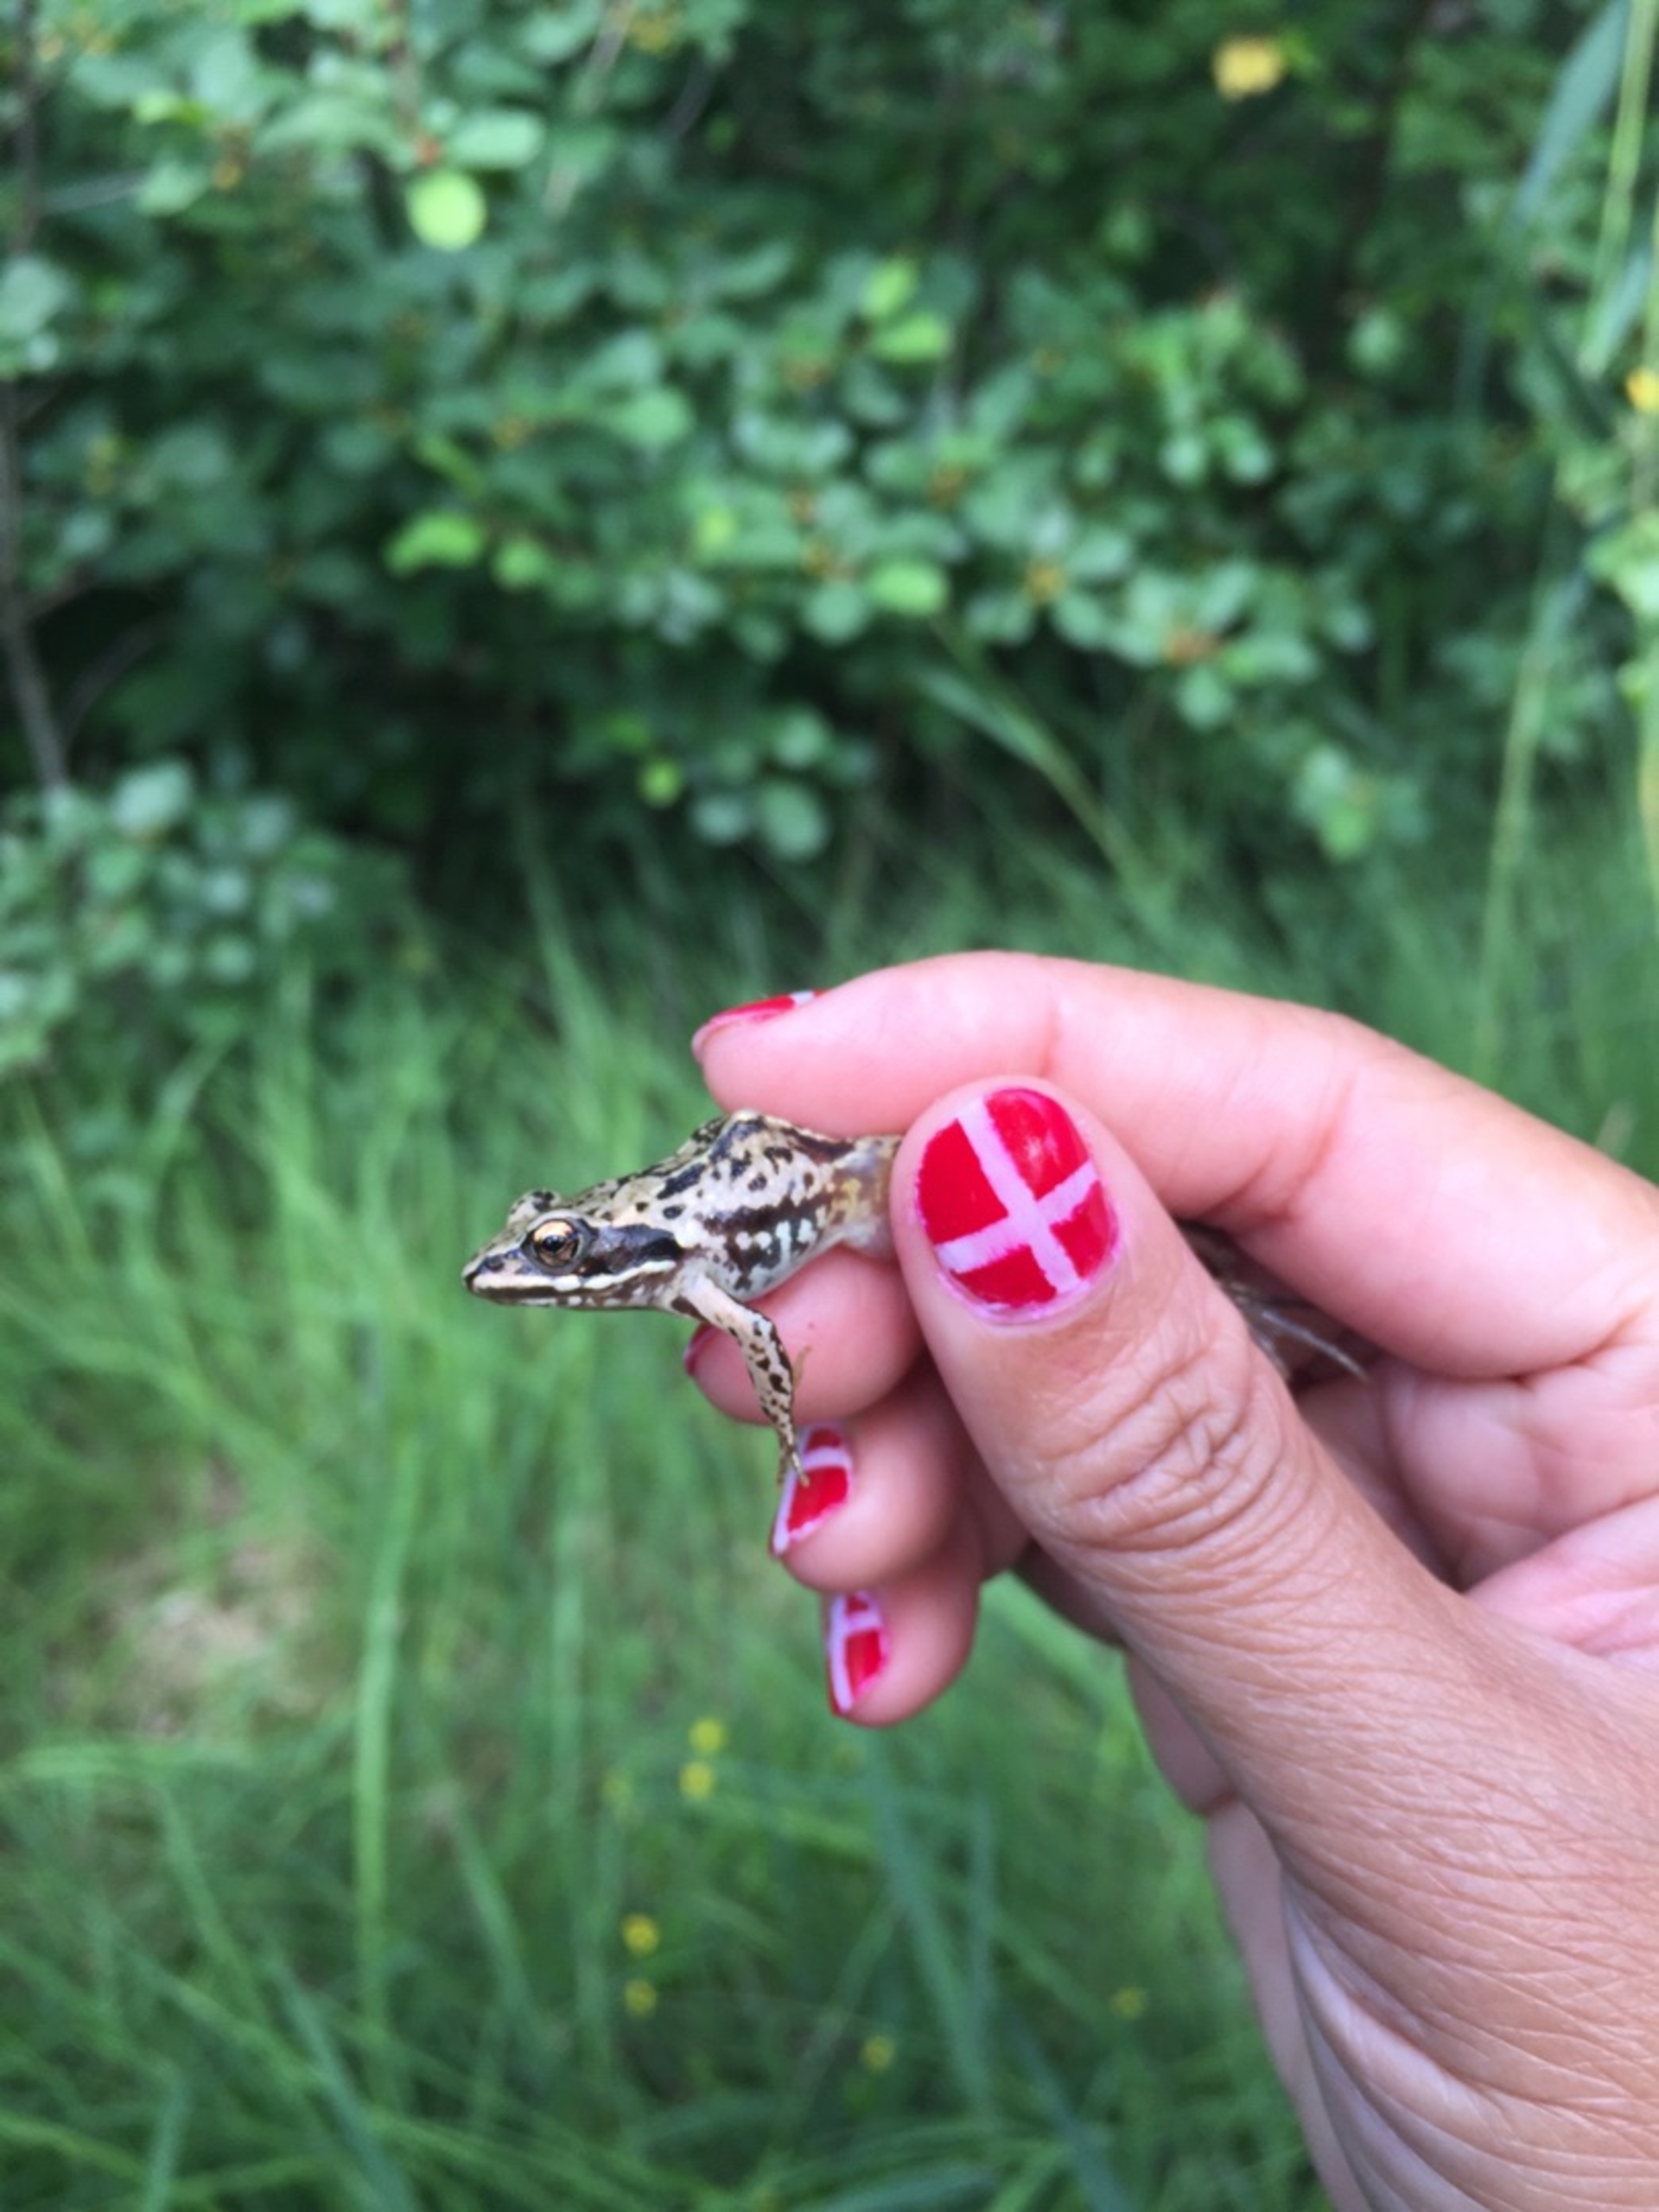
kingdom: Animalia
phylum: Chordata
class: Amphibia
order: Anura
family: Ranidae
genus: Rana
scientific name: Rana arvalis
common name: Spidssnudet frø
